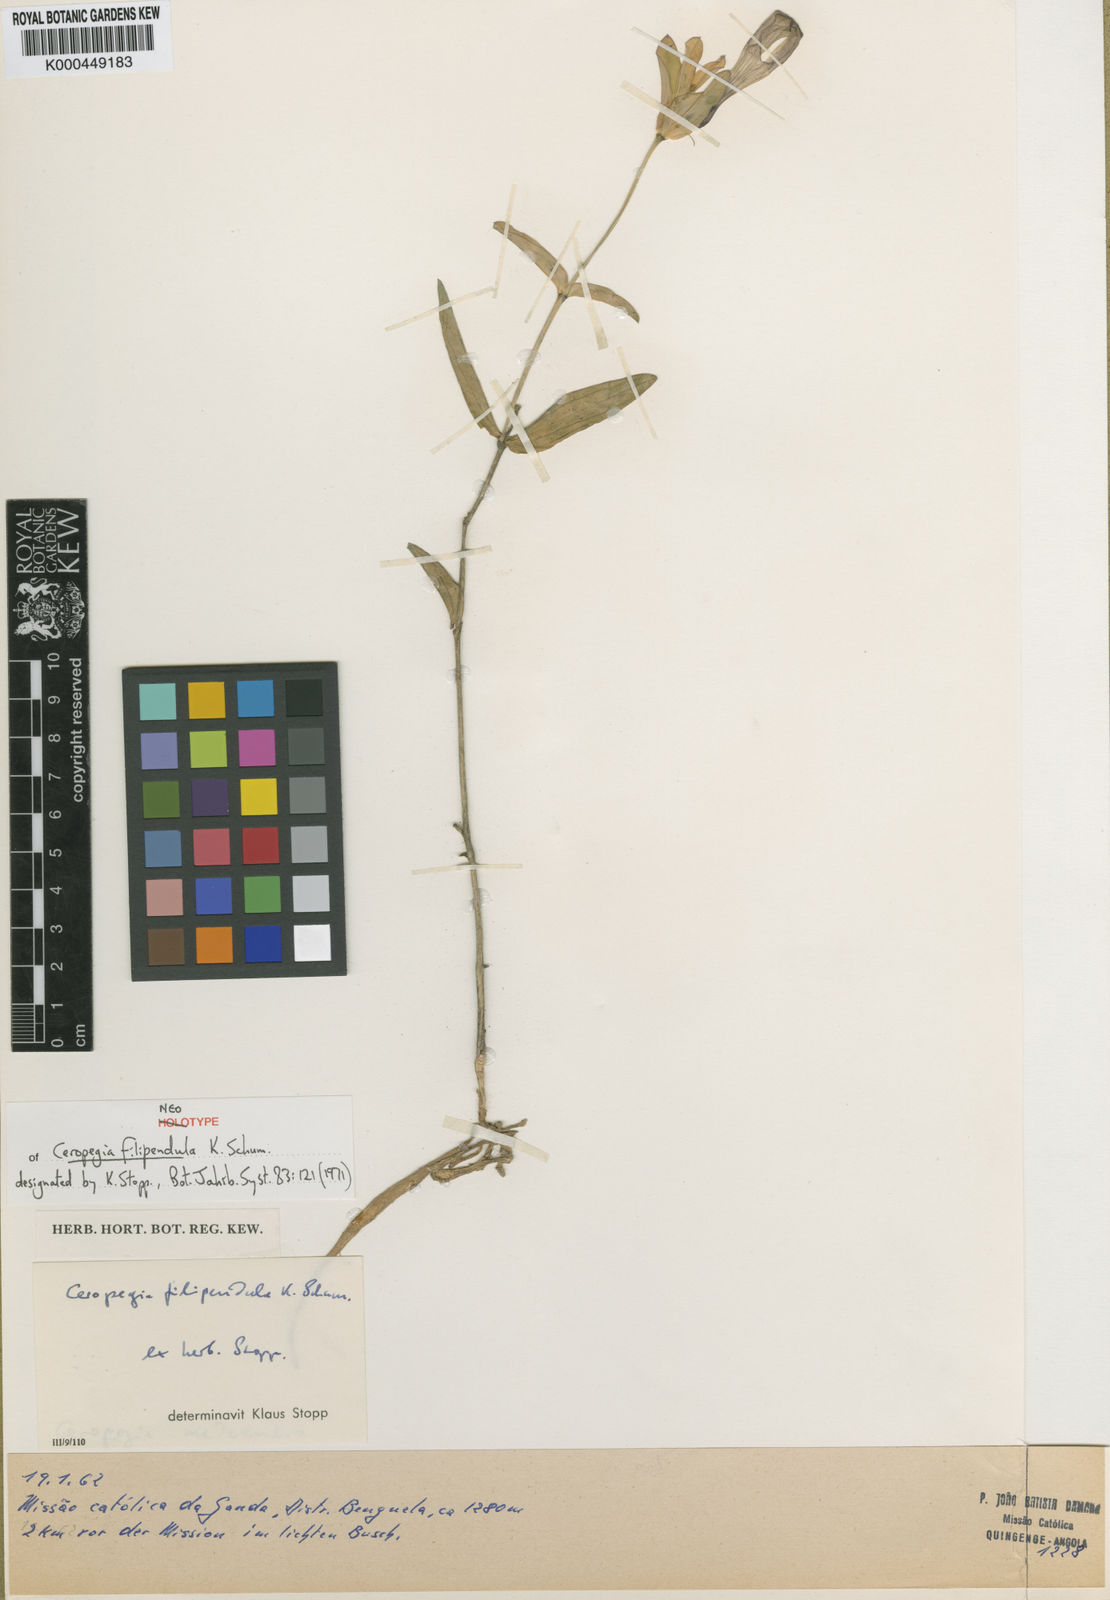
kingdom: Plantae
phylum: Tracheophyta
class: Magnoliopsida
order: Gentianales
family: Apocynaceae
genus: Ceropegia
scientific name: Ceropegia filipendula
